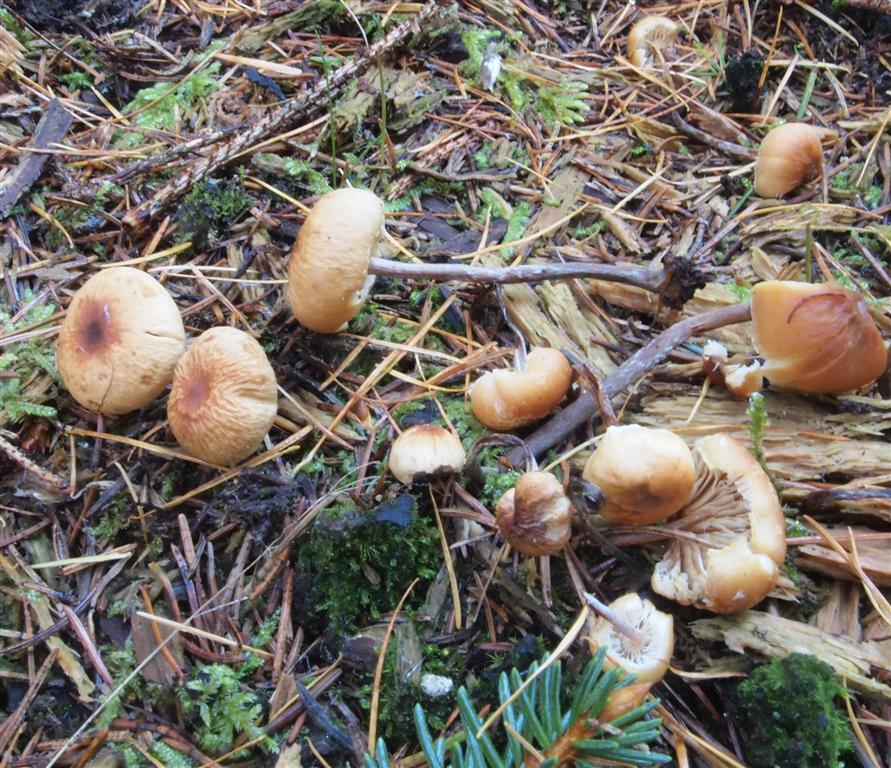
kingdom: Fungi
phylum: Basidiomycota
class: Agaricomycetes
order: Agaricales
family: Strophariaceae
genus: Hypholoma
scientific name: Hypholoma marginatum
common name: enlig svovlhat
